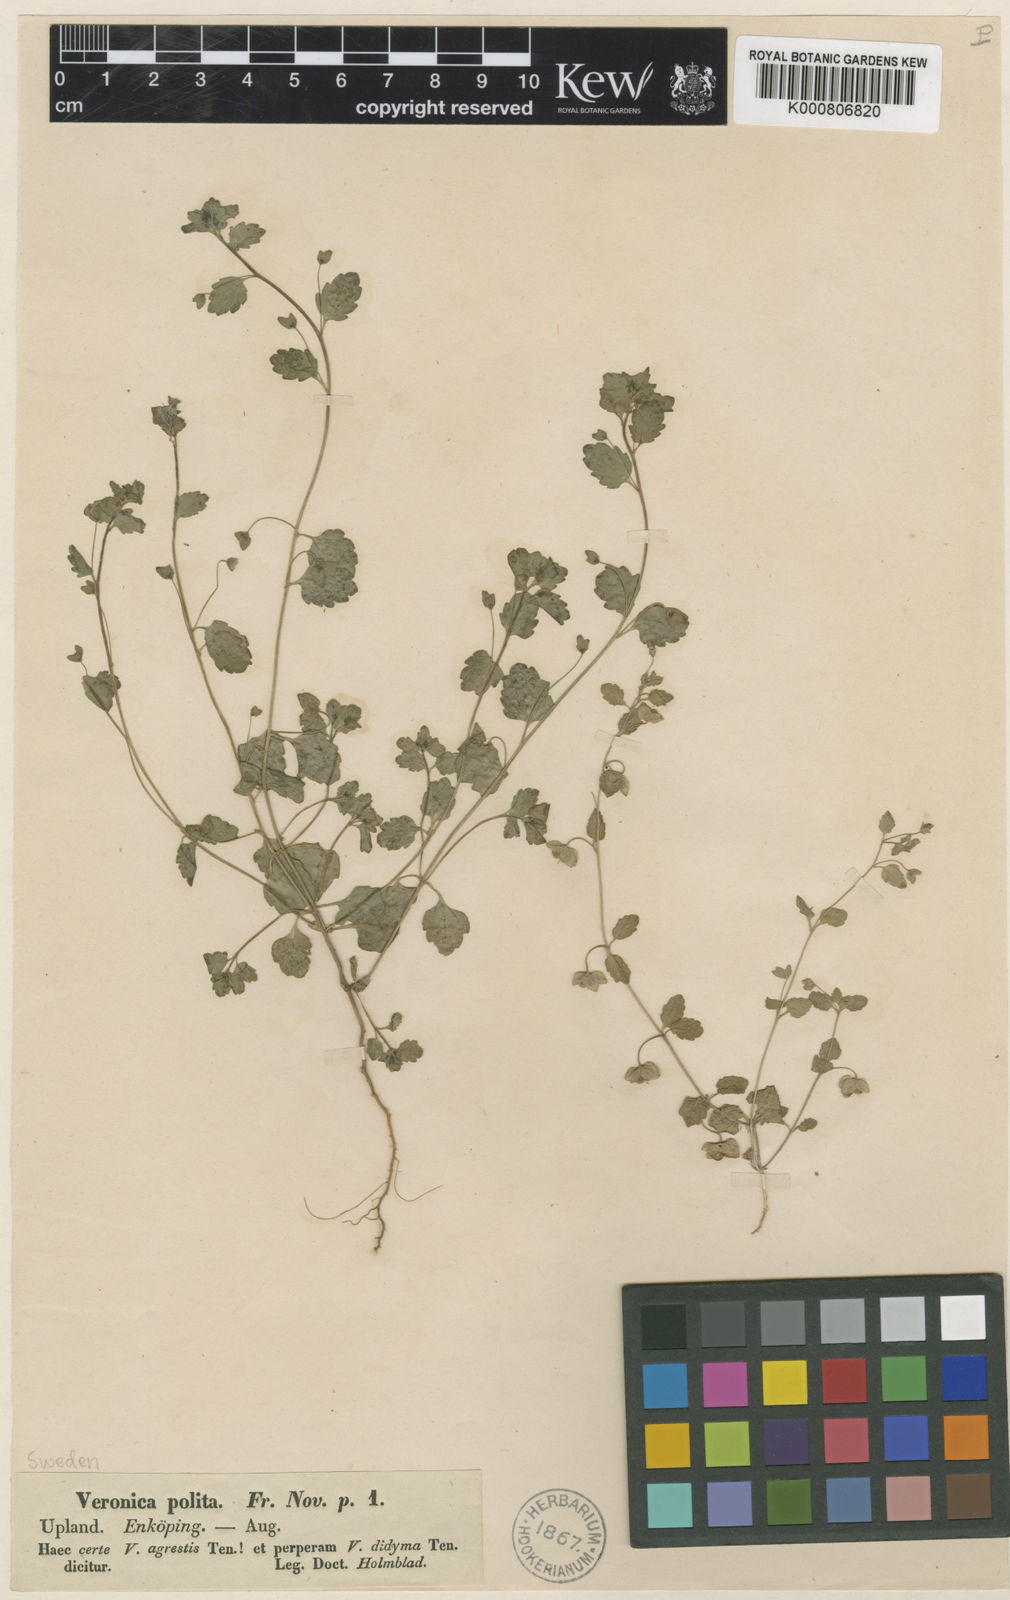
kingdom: Plantae
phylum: Tracheophyta
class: Magnoliopsida
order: Lamiales
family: Plantaginaceae
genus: Veronica
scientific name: Veronica polita
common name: Grey field-speedwell
